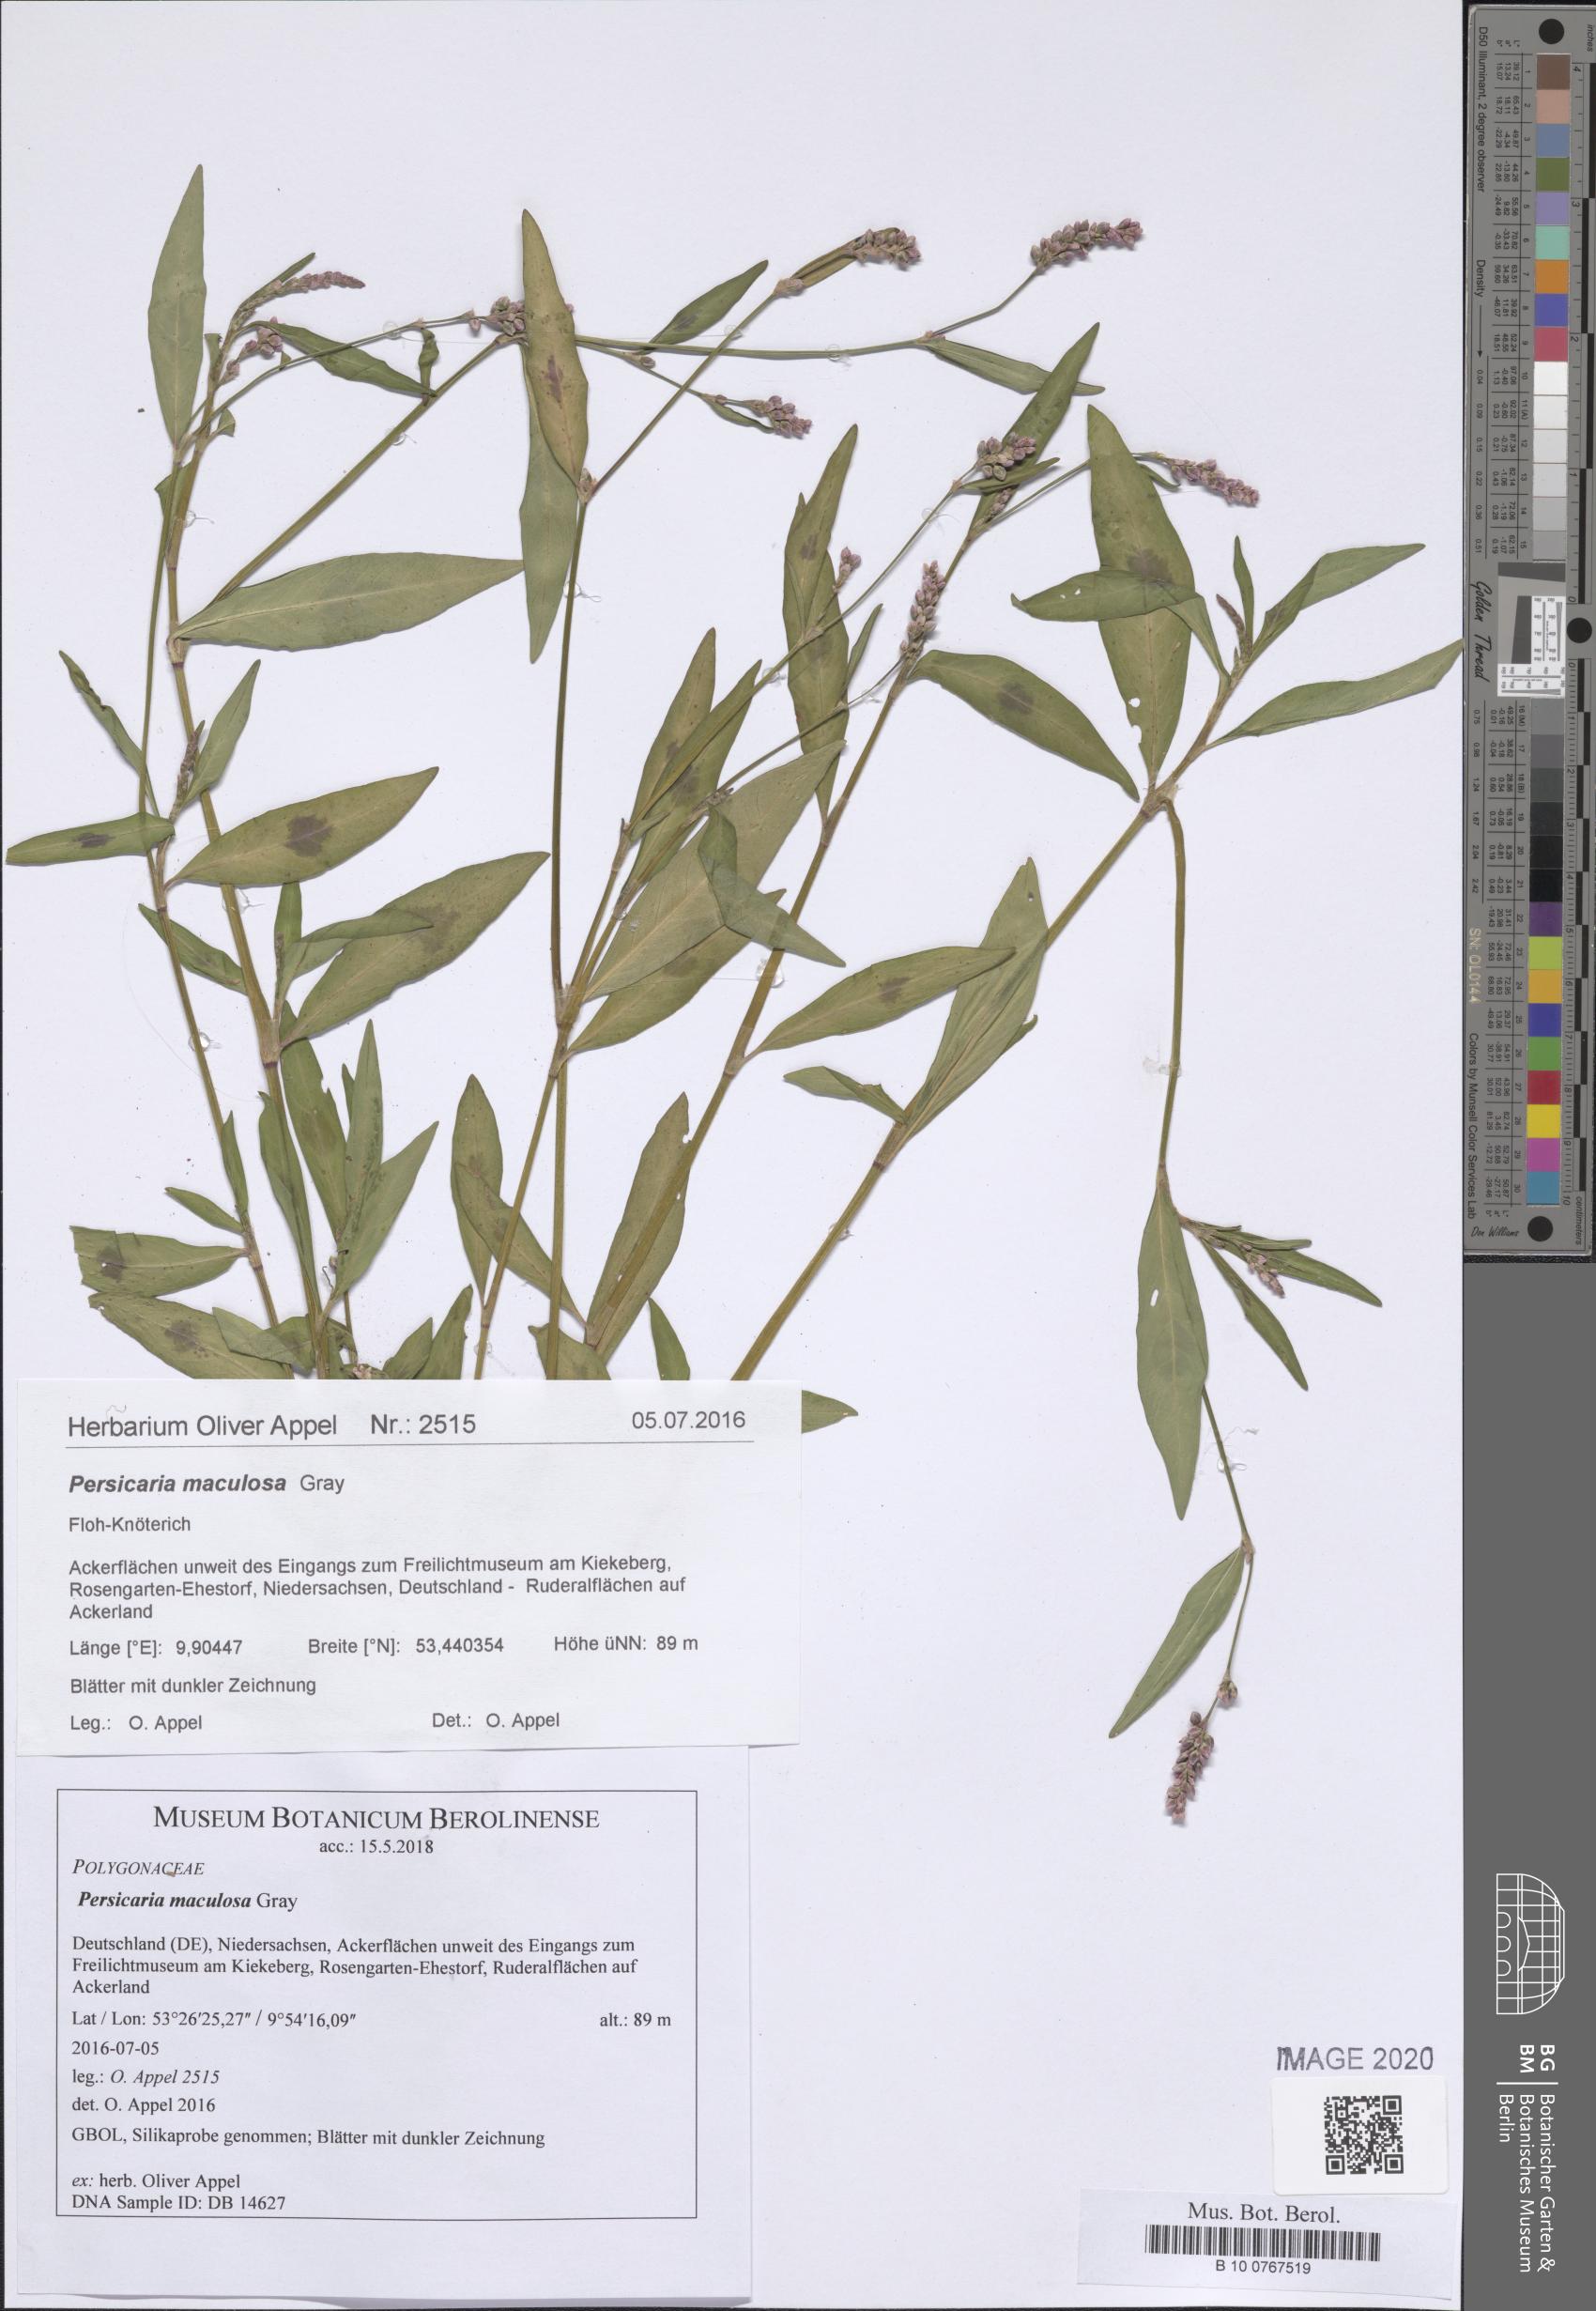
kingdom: Plantae
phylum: Tracheophyta
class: Magnoliopsida
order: Caryophyllales
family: Polygonaceae
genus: Persicaria
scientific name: Persicaria maculosa
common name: Redshank
